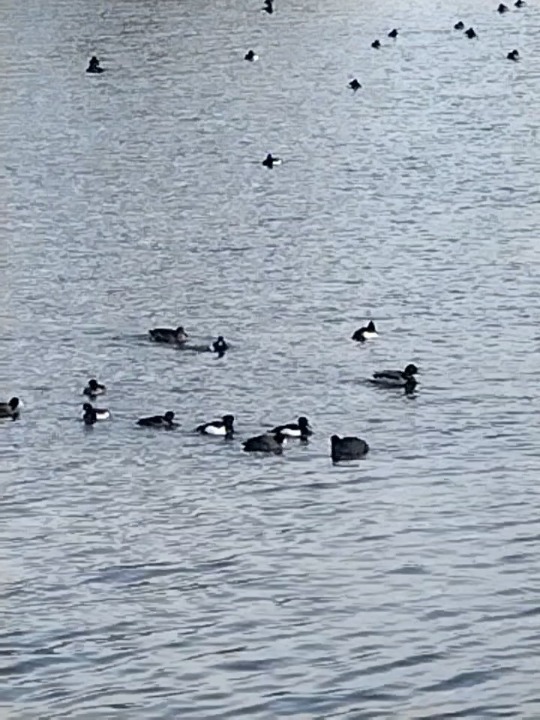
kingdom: Animalia
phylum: Chordata
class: Aves
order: Anseriformes
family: Anatidae
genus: Aythya
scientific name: Aythya fuligula
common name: Troldand
